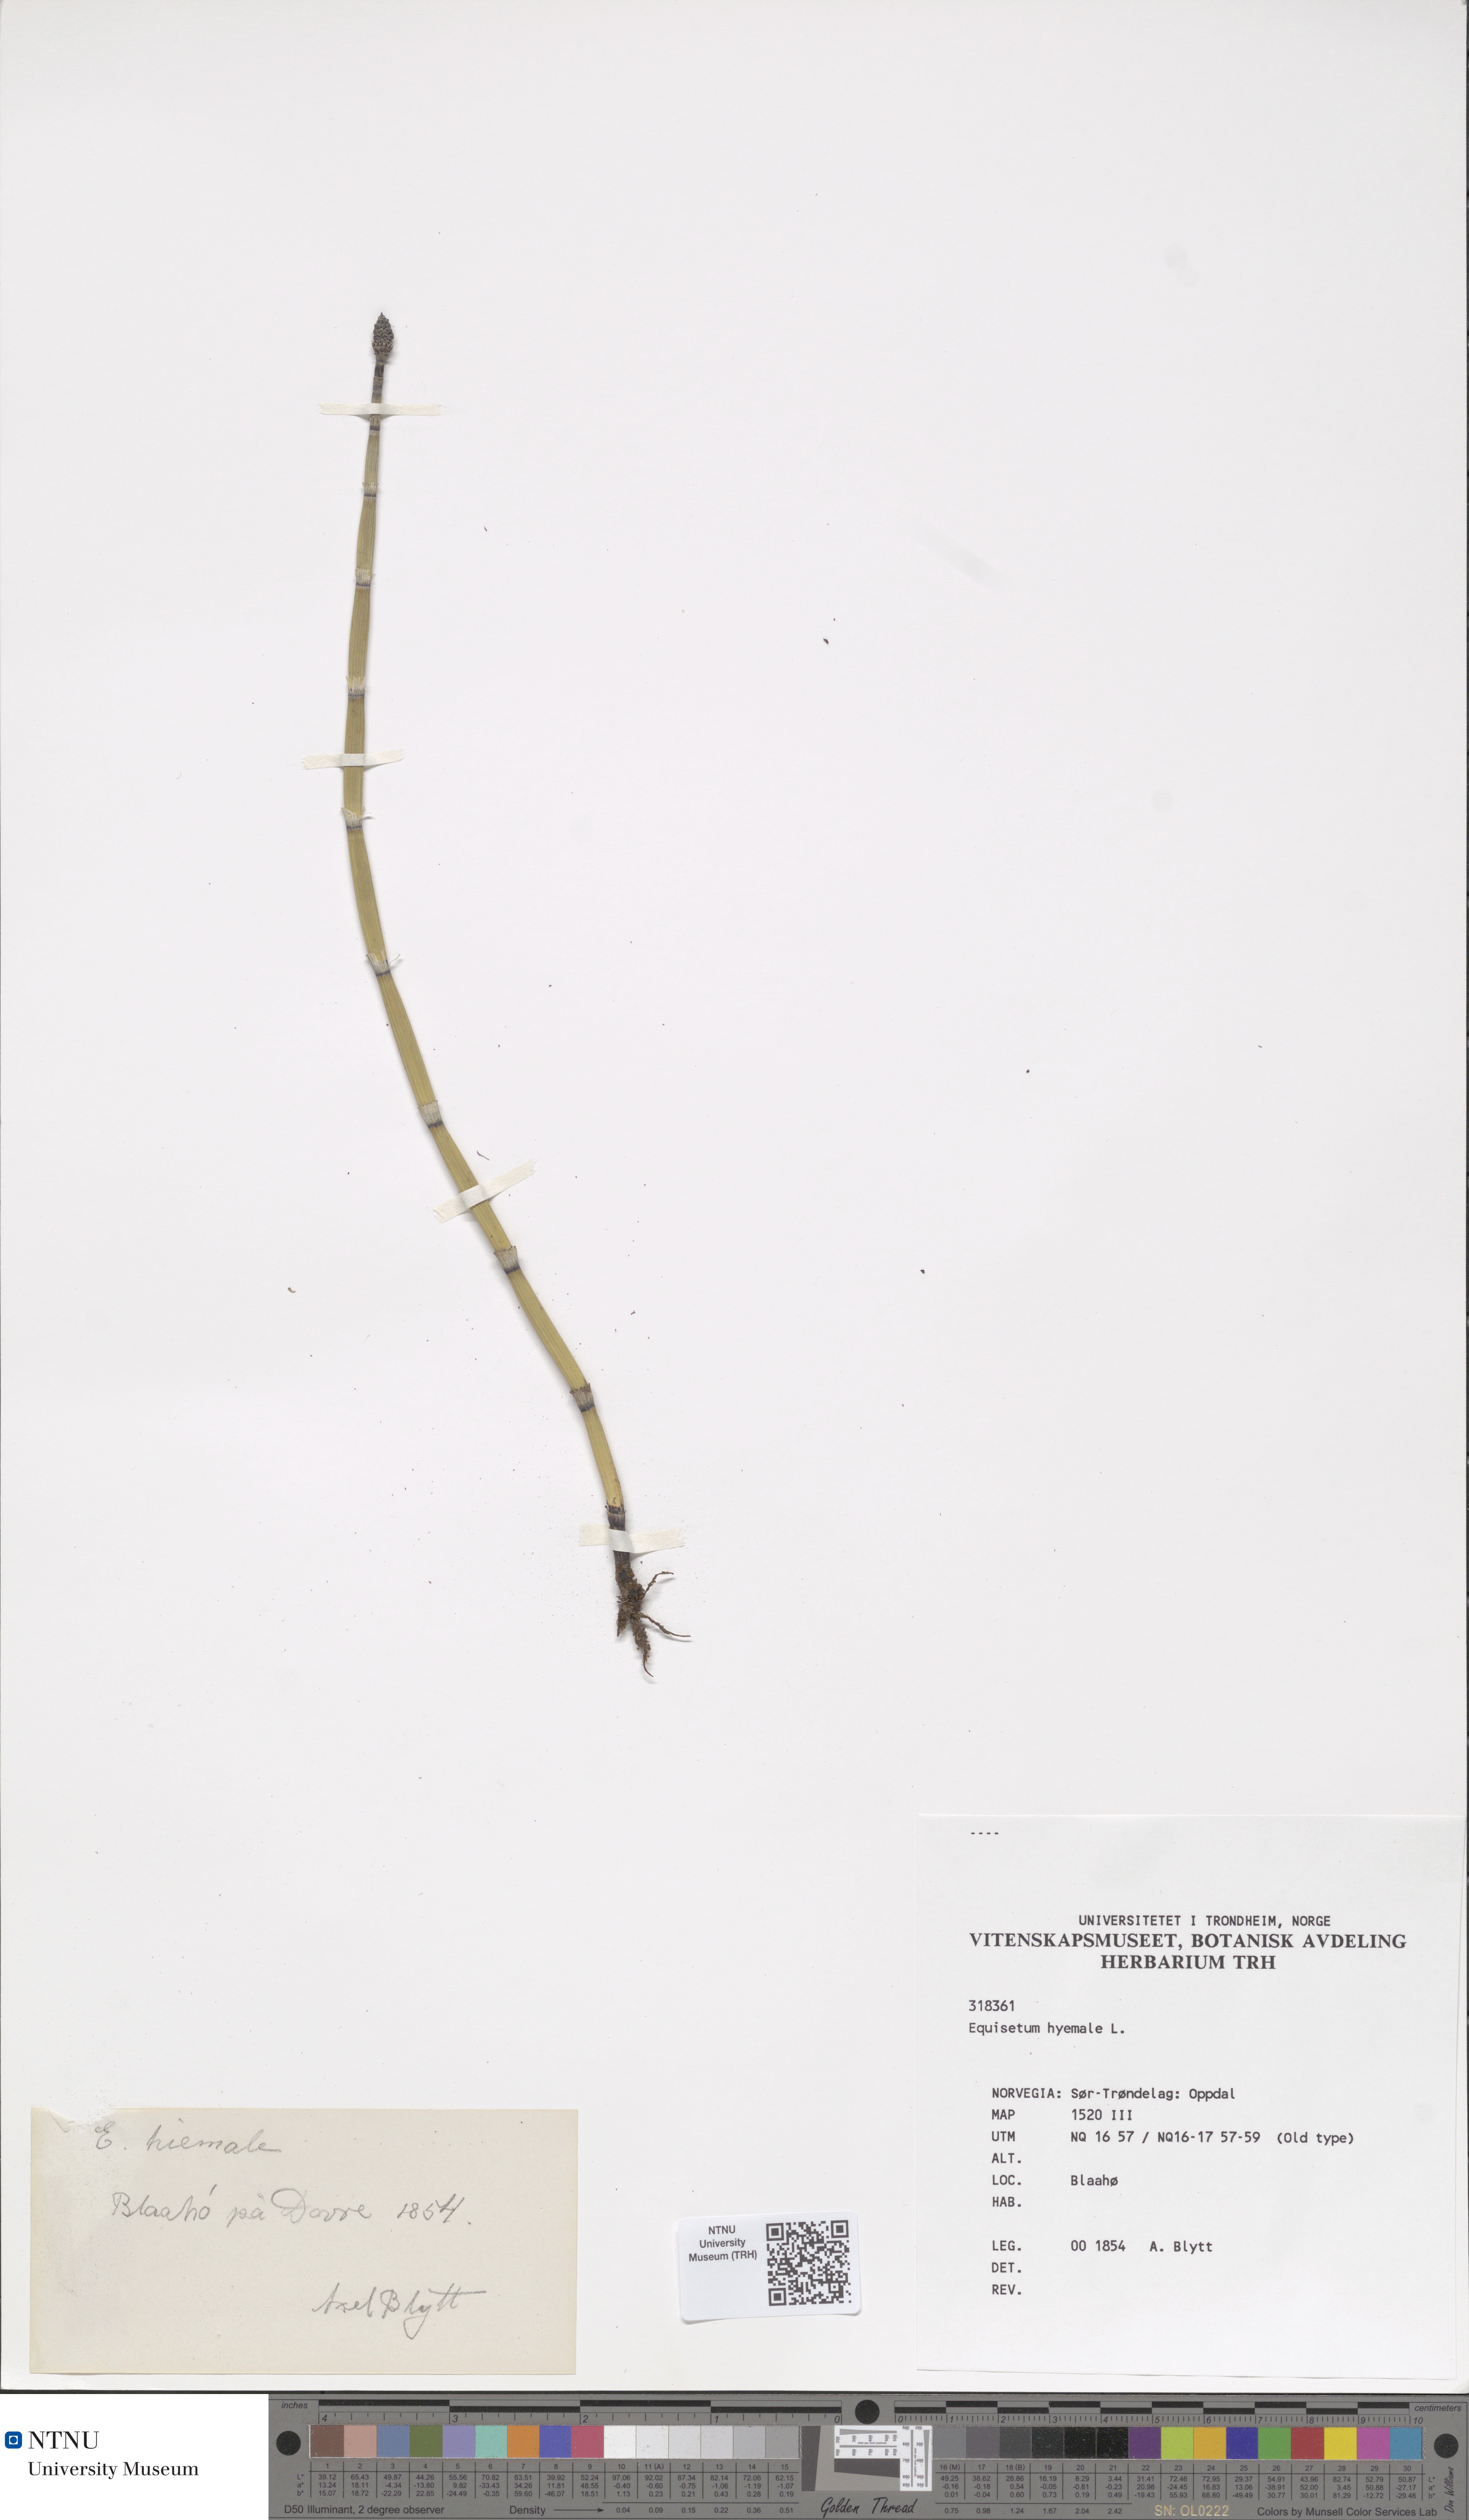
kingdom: Plantae
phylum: Tracheophyta
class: Polypodiopsida
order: Equisetales
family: Equisetaceae
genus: Equisetum
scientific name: Equisetum hyemale
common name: Rough horsetail
